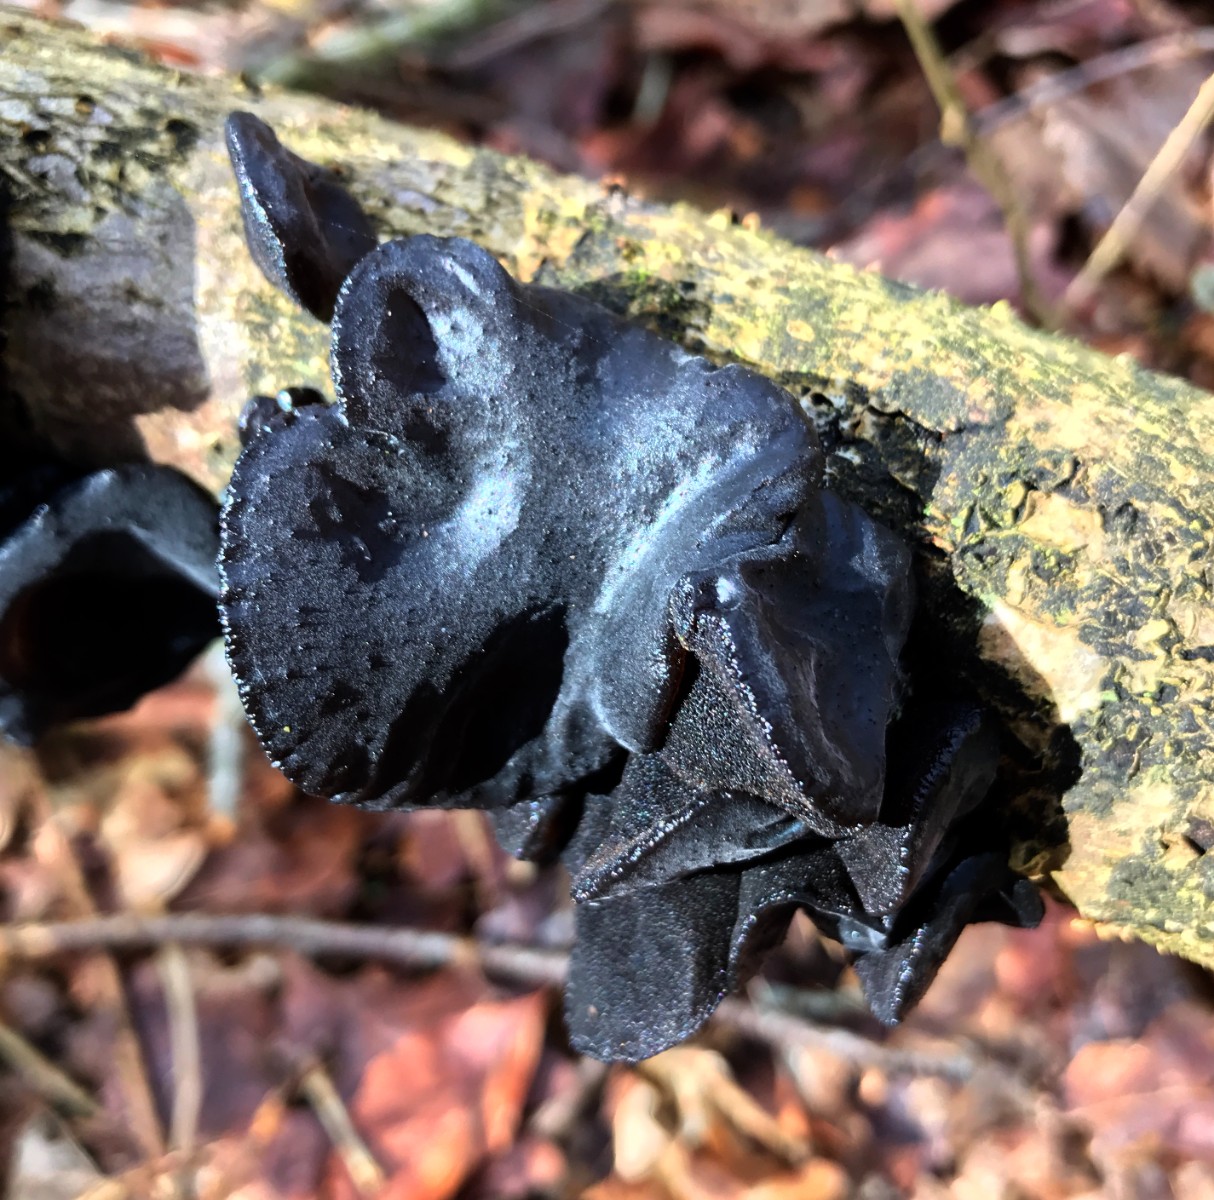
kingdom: Fungi
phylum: Basidiomycota
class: Agaricomycetes
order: Auriculariales
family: Auriculariaceae
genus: Exidia
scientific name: Exidia glandulosa
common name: ege-bævretop
